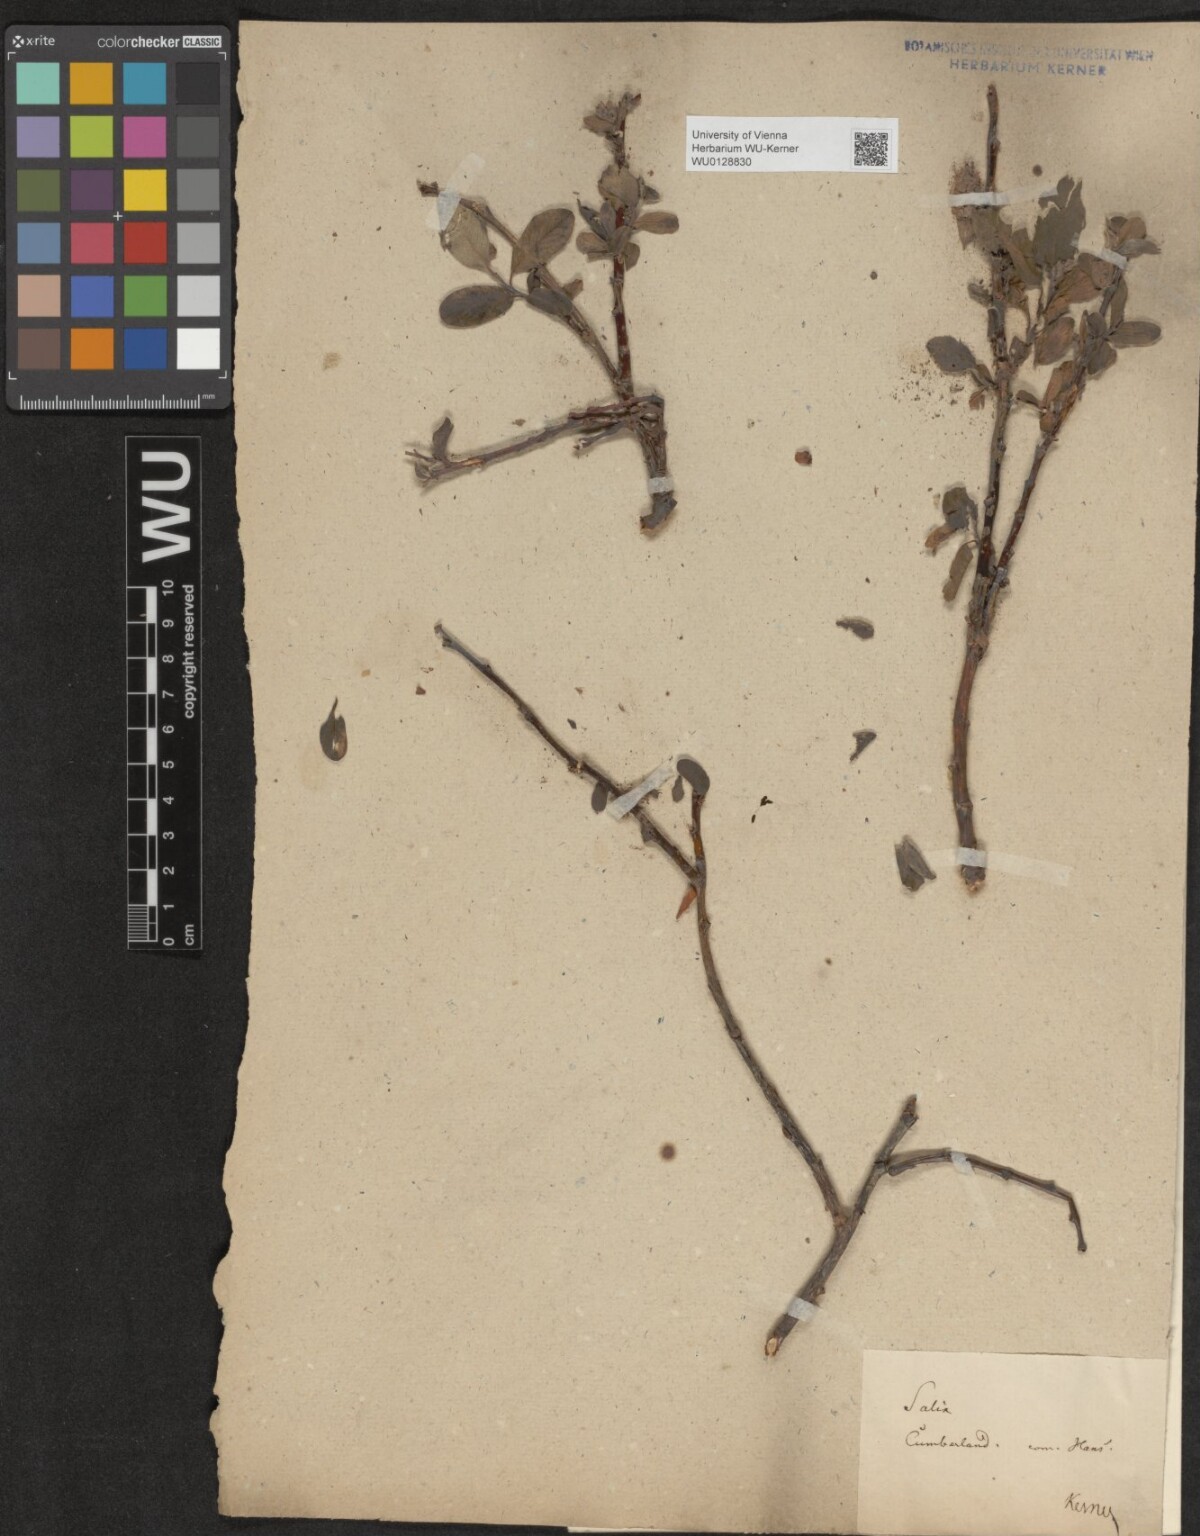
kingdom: Plantae
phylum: Tracheophyta
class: Magnoliopsida
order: Malpighiales
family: Salicaceae
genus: Salix
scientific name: Salix arctica
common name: Arctic willow
